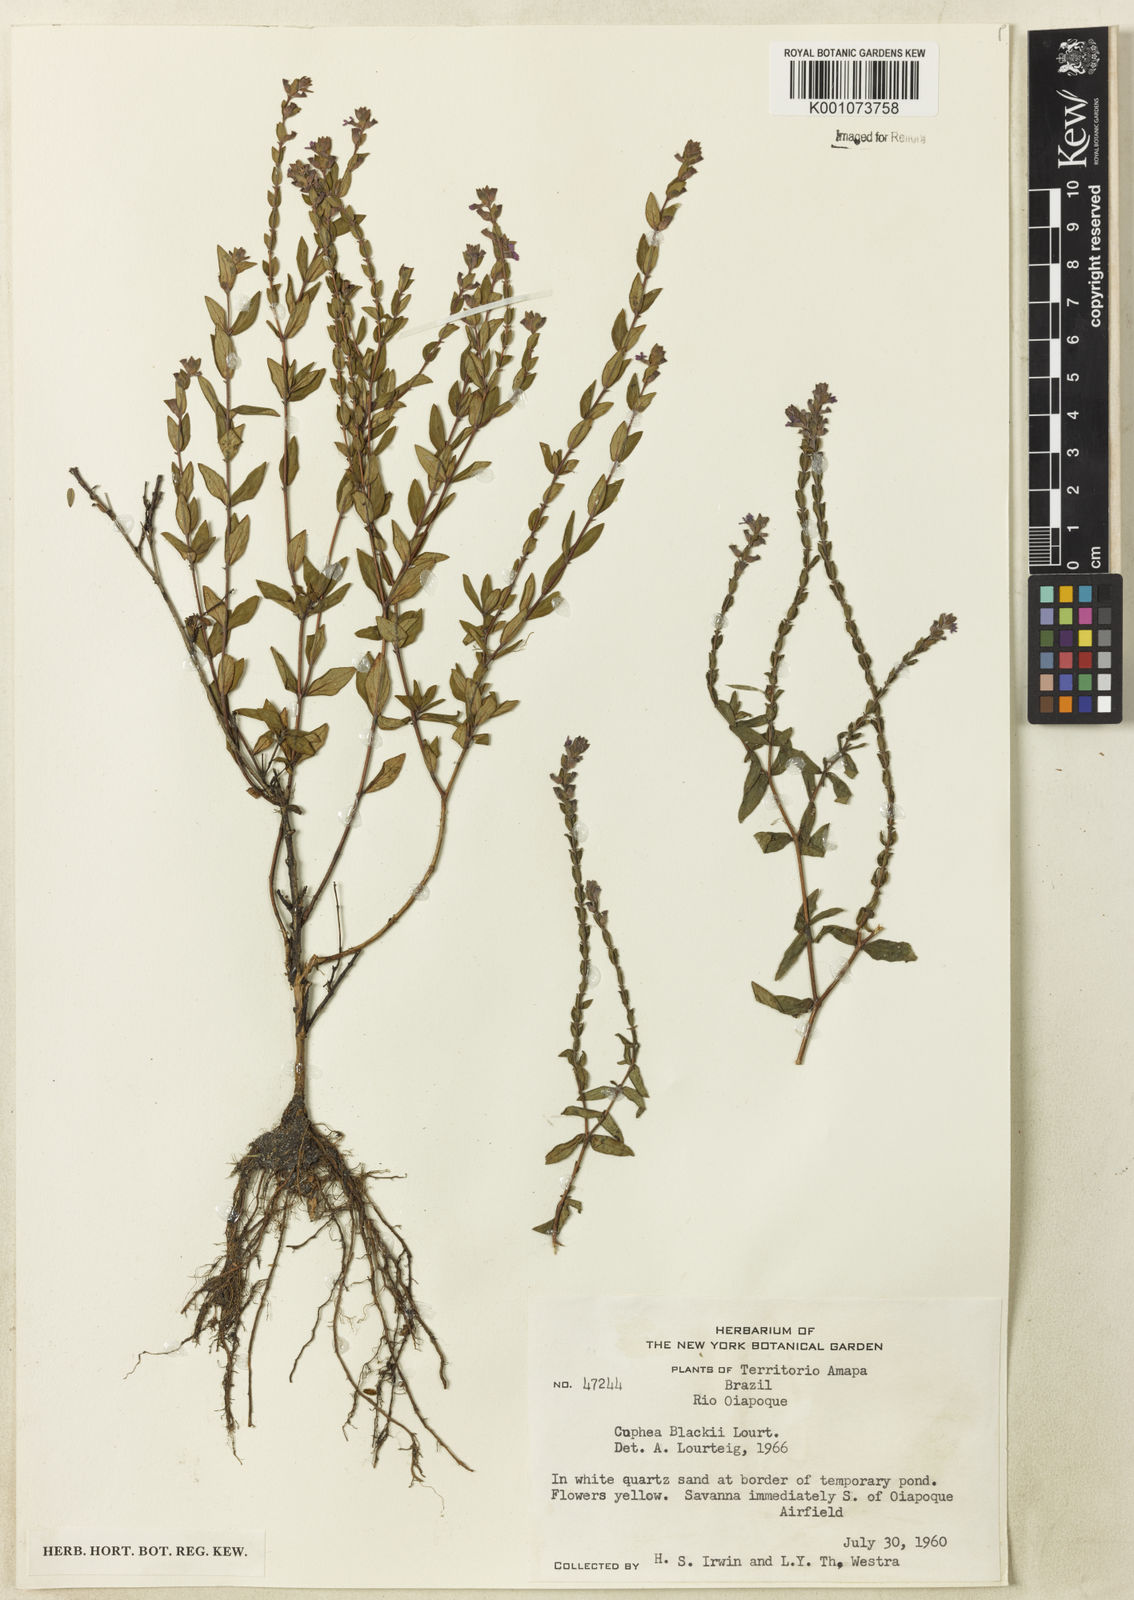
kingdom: Plantae
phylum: Tracheophyta
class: Magnoliopsida
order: Myrtales
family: Lythraceae
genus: Cuphea
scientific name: Cuphea blackii
